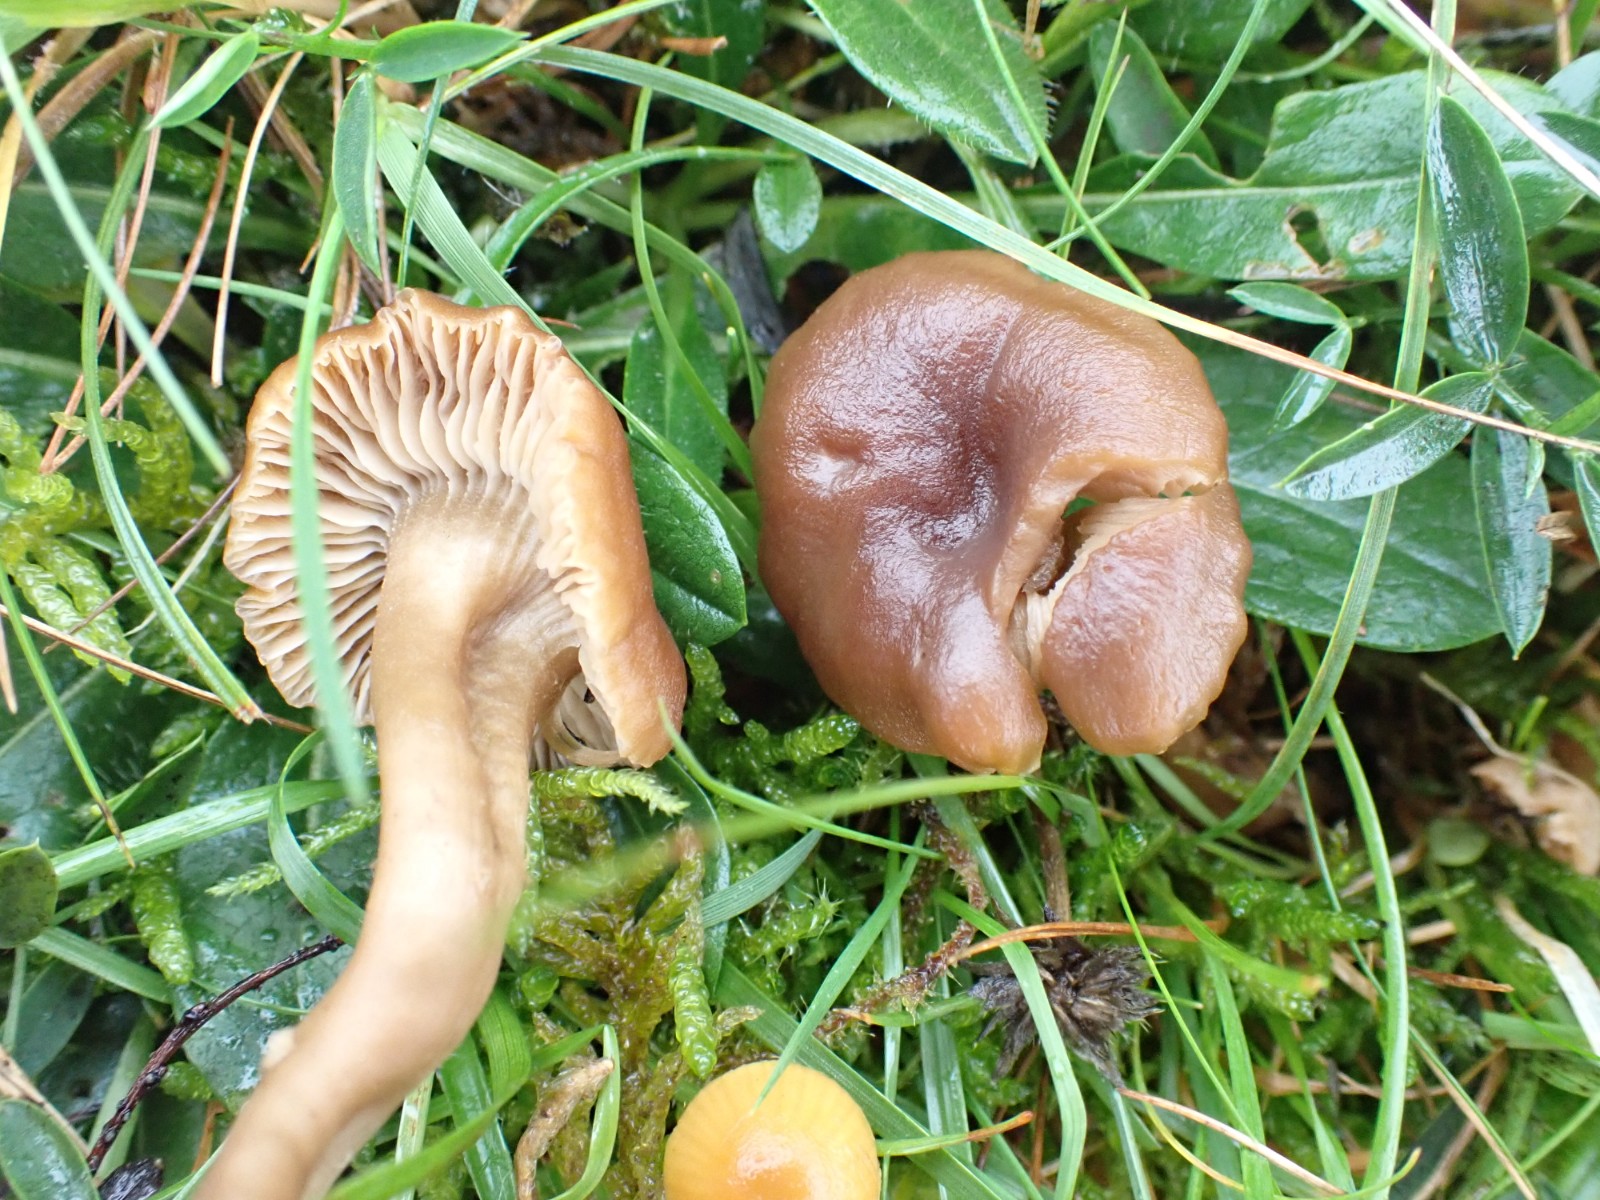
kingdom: Fungi
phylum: Basidiomycota
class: Agaricomycetes
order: Agaricales
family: Clavariaceae
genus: Camarophyllopsis
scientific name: Camarophyllopsis schulzeri
